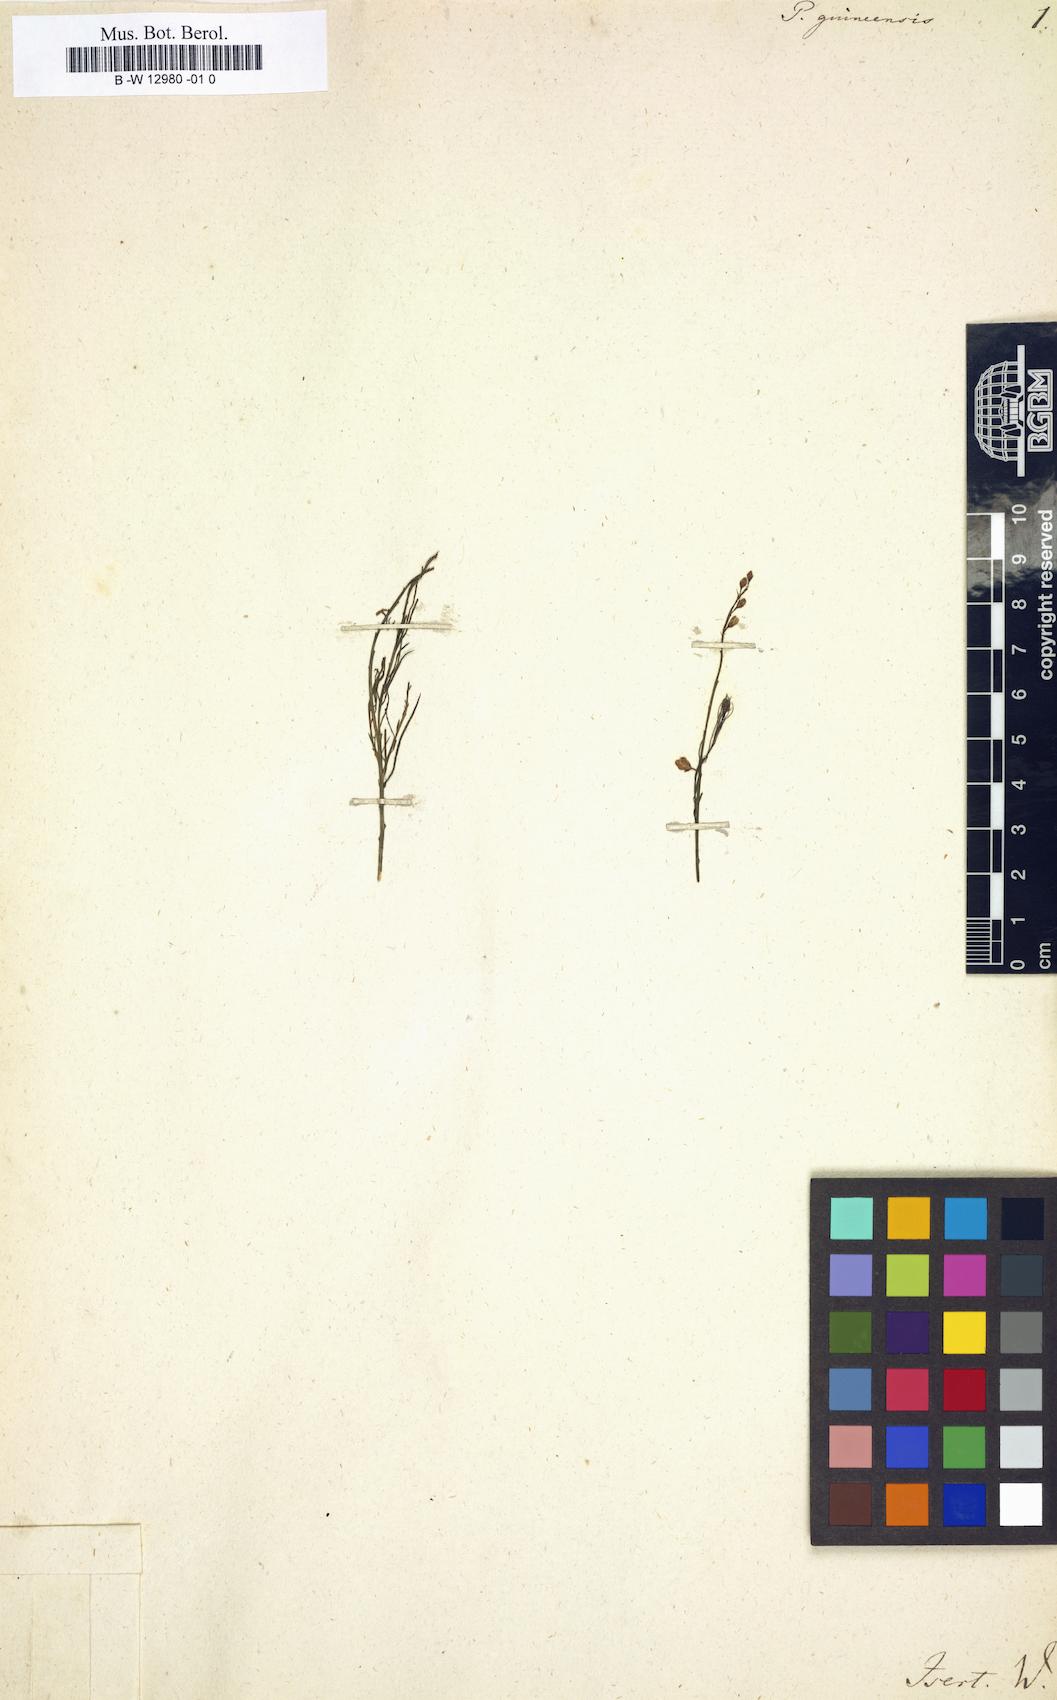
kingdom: Plantae
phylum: Tracheophyta
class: Magnoliopsida
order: Fabales
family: Polygalaceae
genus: Polygala
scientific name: Polygala guineensis
